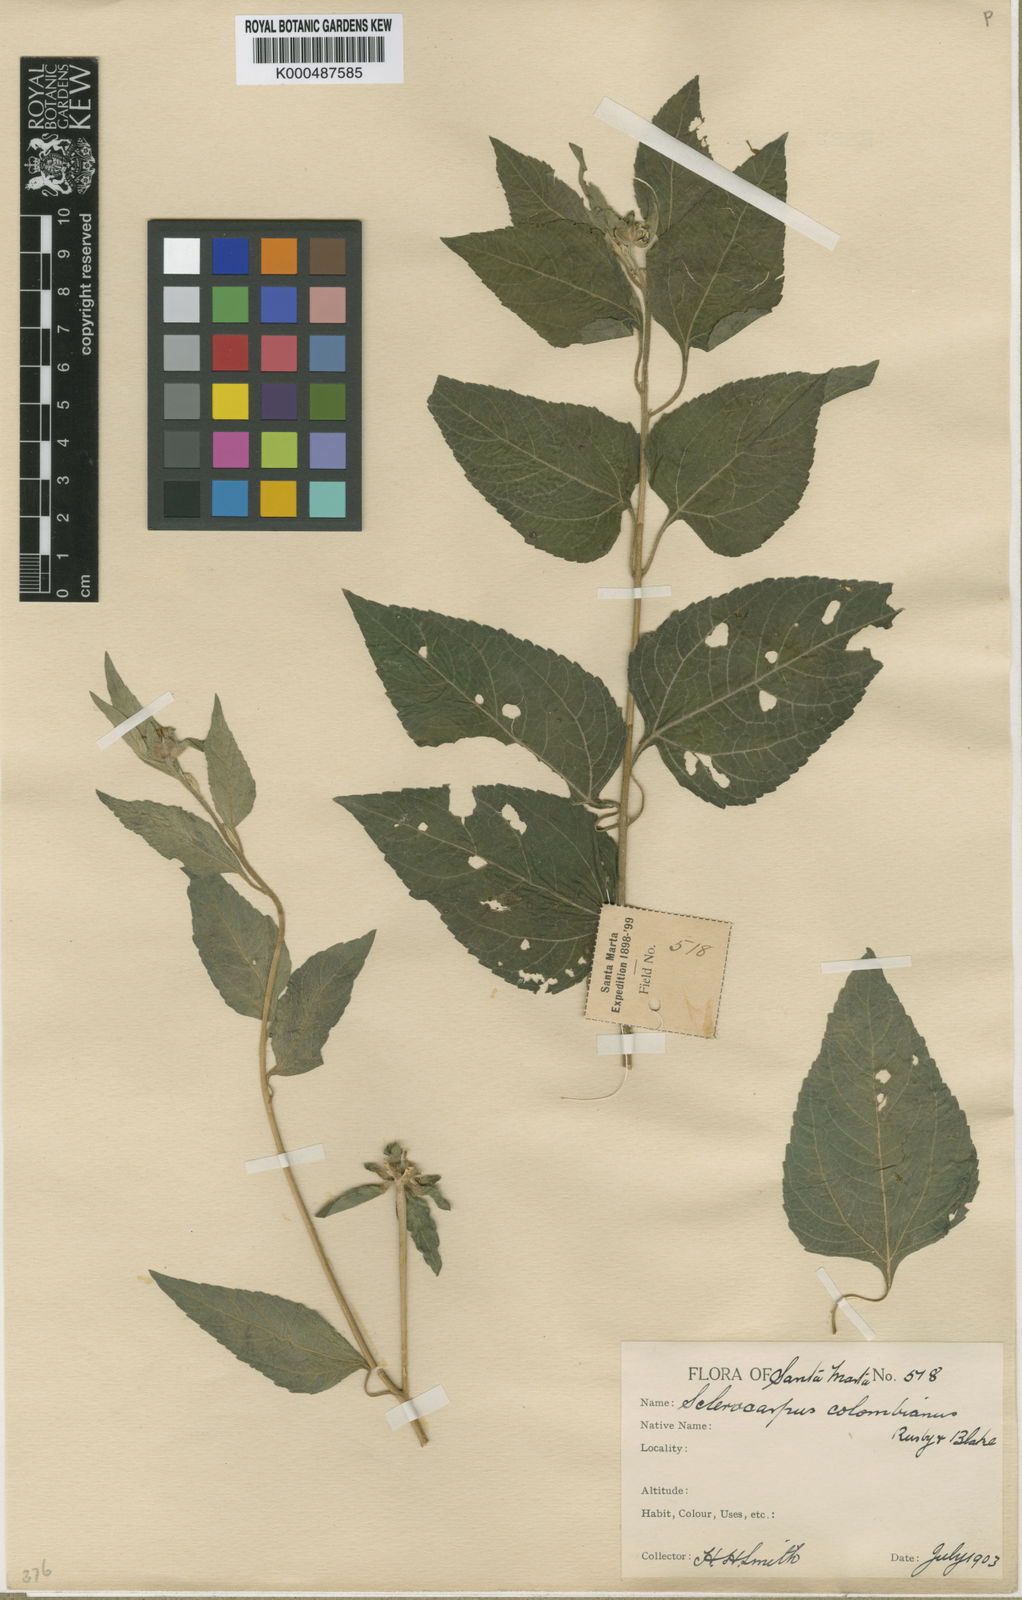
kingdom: Plantae
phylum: Tracheophyta
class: Magnoliopsida
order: Asterales
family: Asteraceae
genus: Sclerocarpus
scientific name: Sclerocarpus baranquillae
